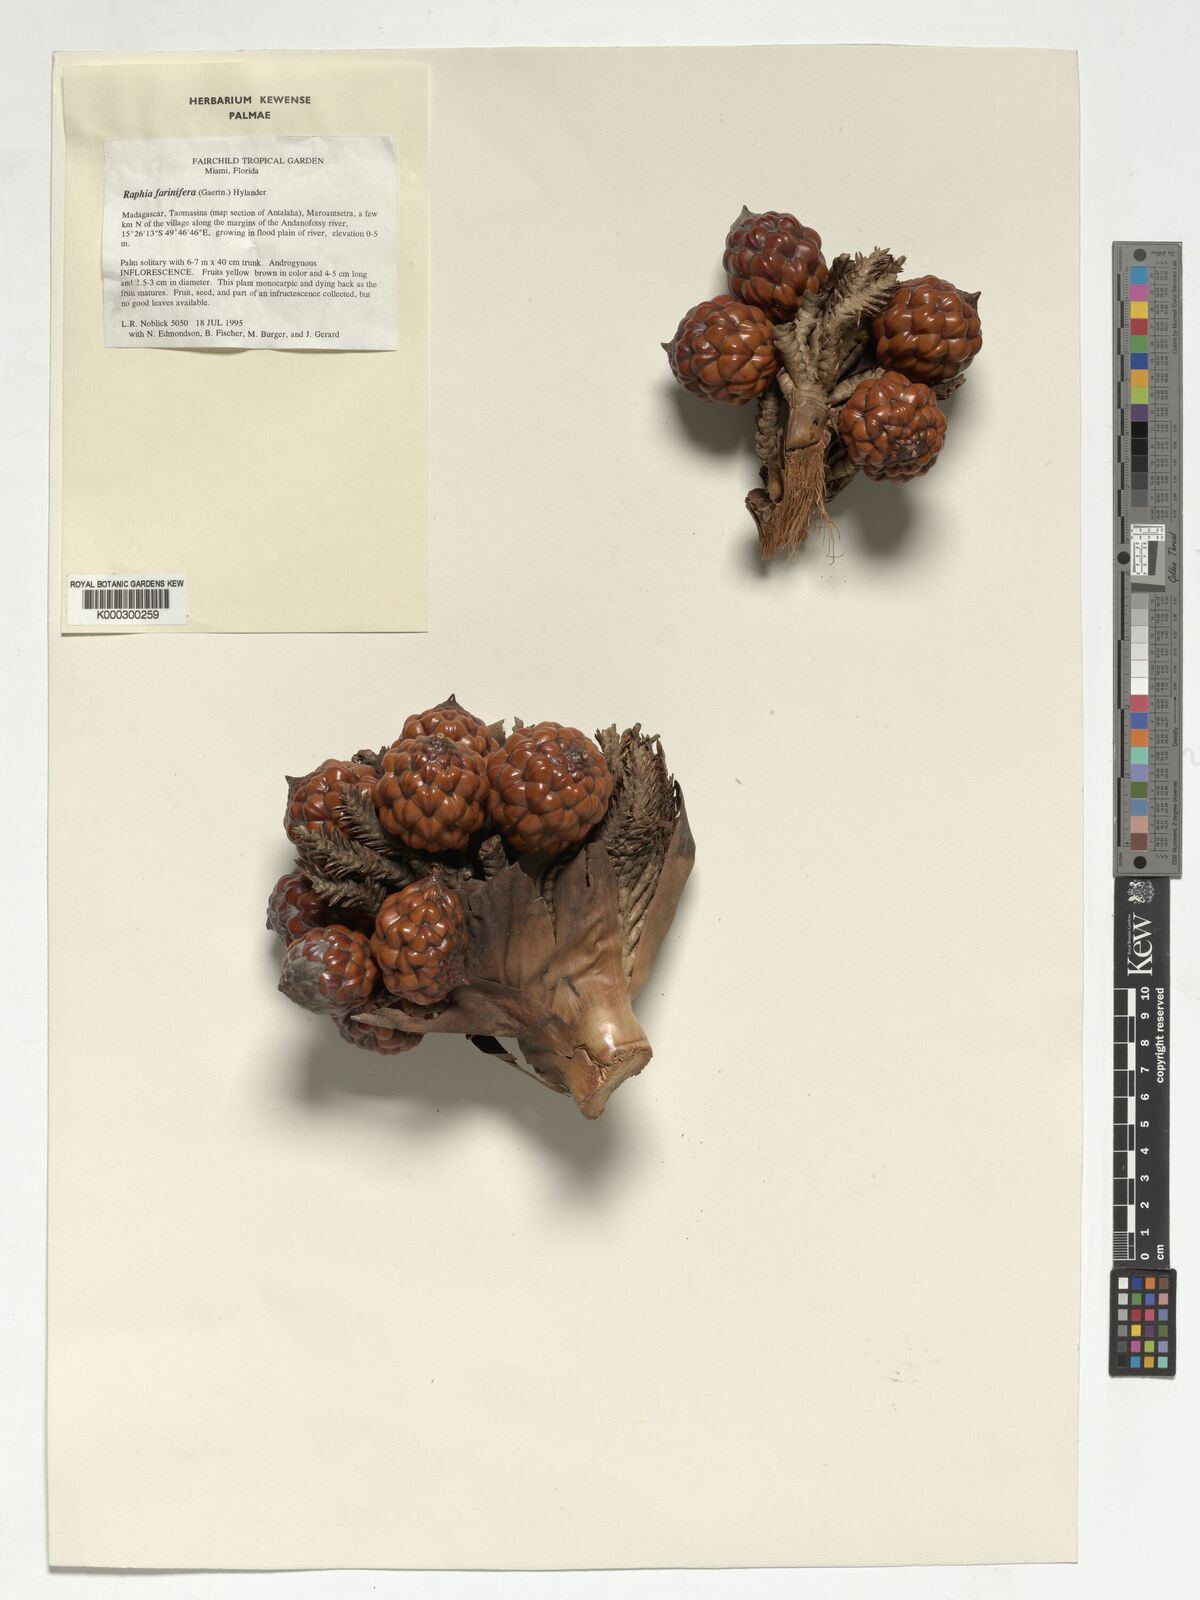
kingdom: Plantae
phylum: Tracheophyta
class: Liliopsida
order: Arecales
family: Arecaceae
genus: Raphia
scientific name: Raphia farinifera
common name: Raphia palm
